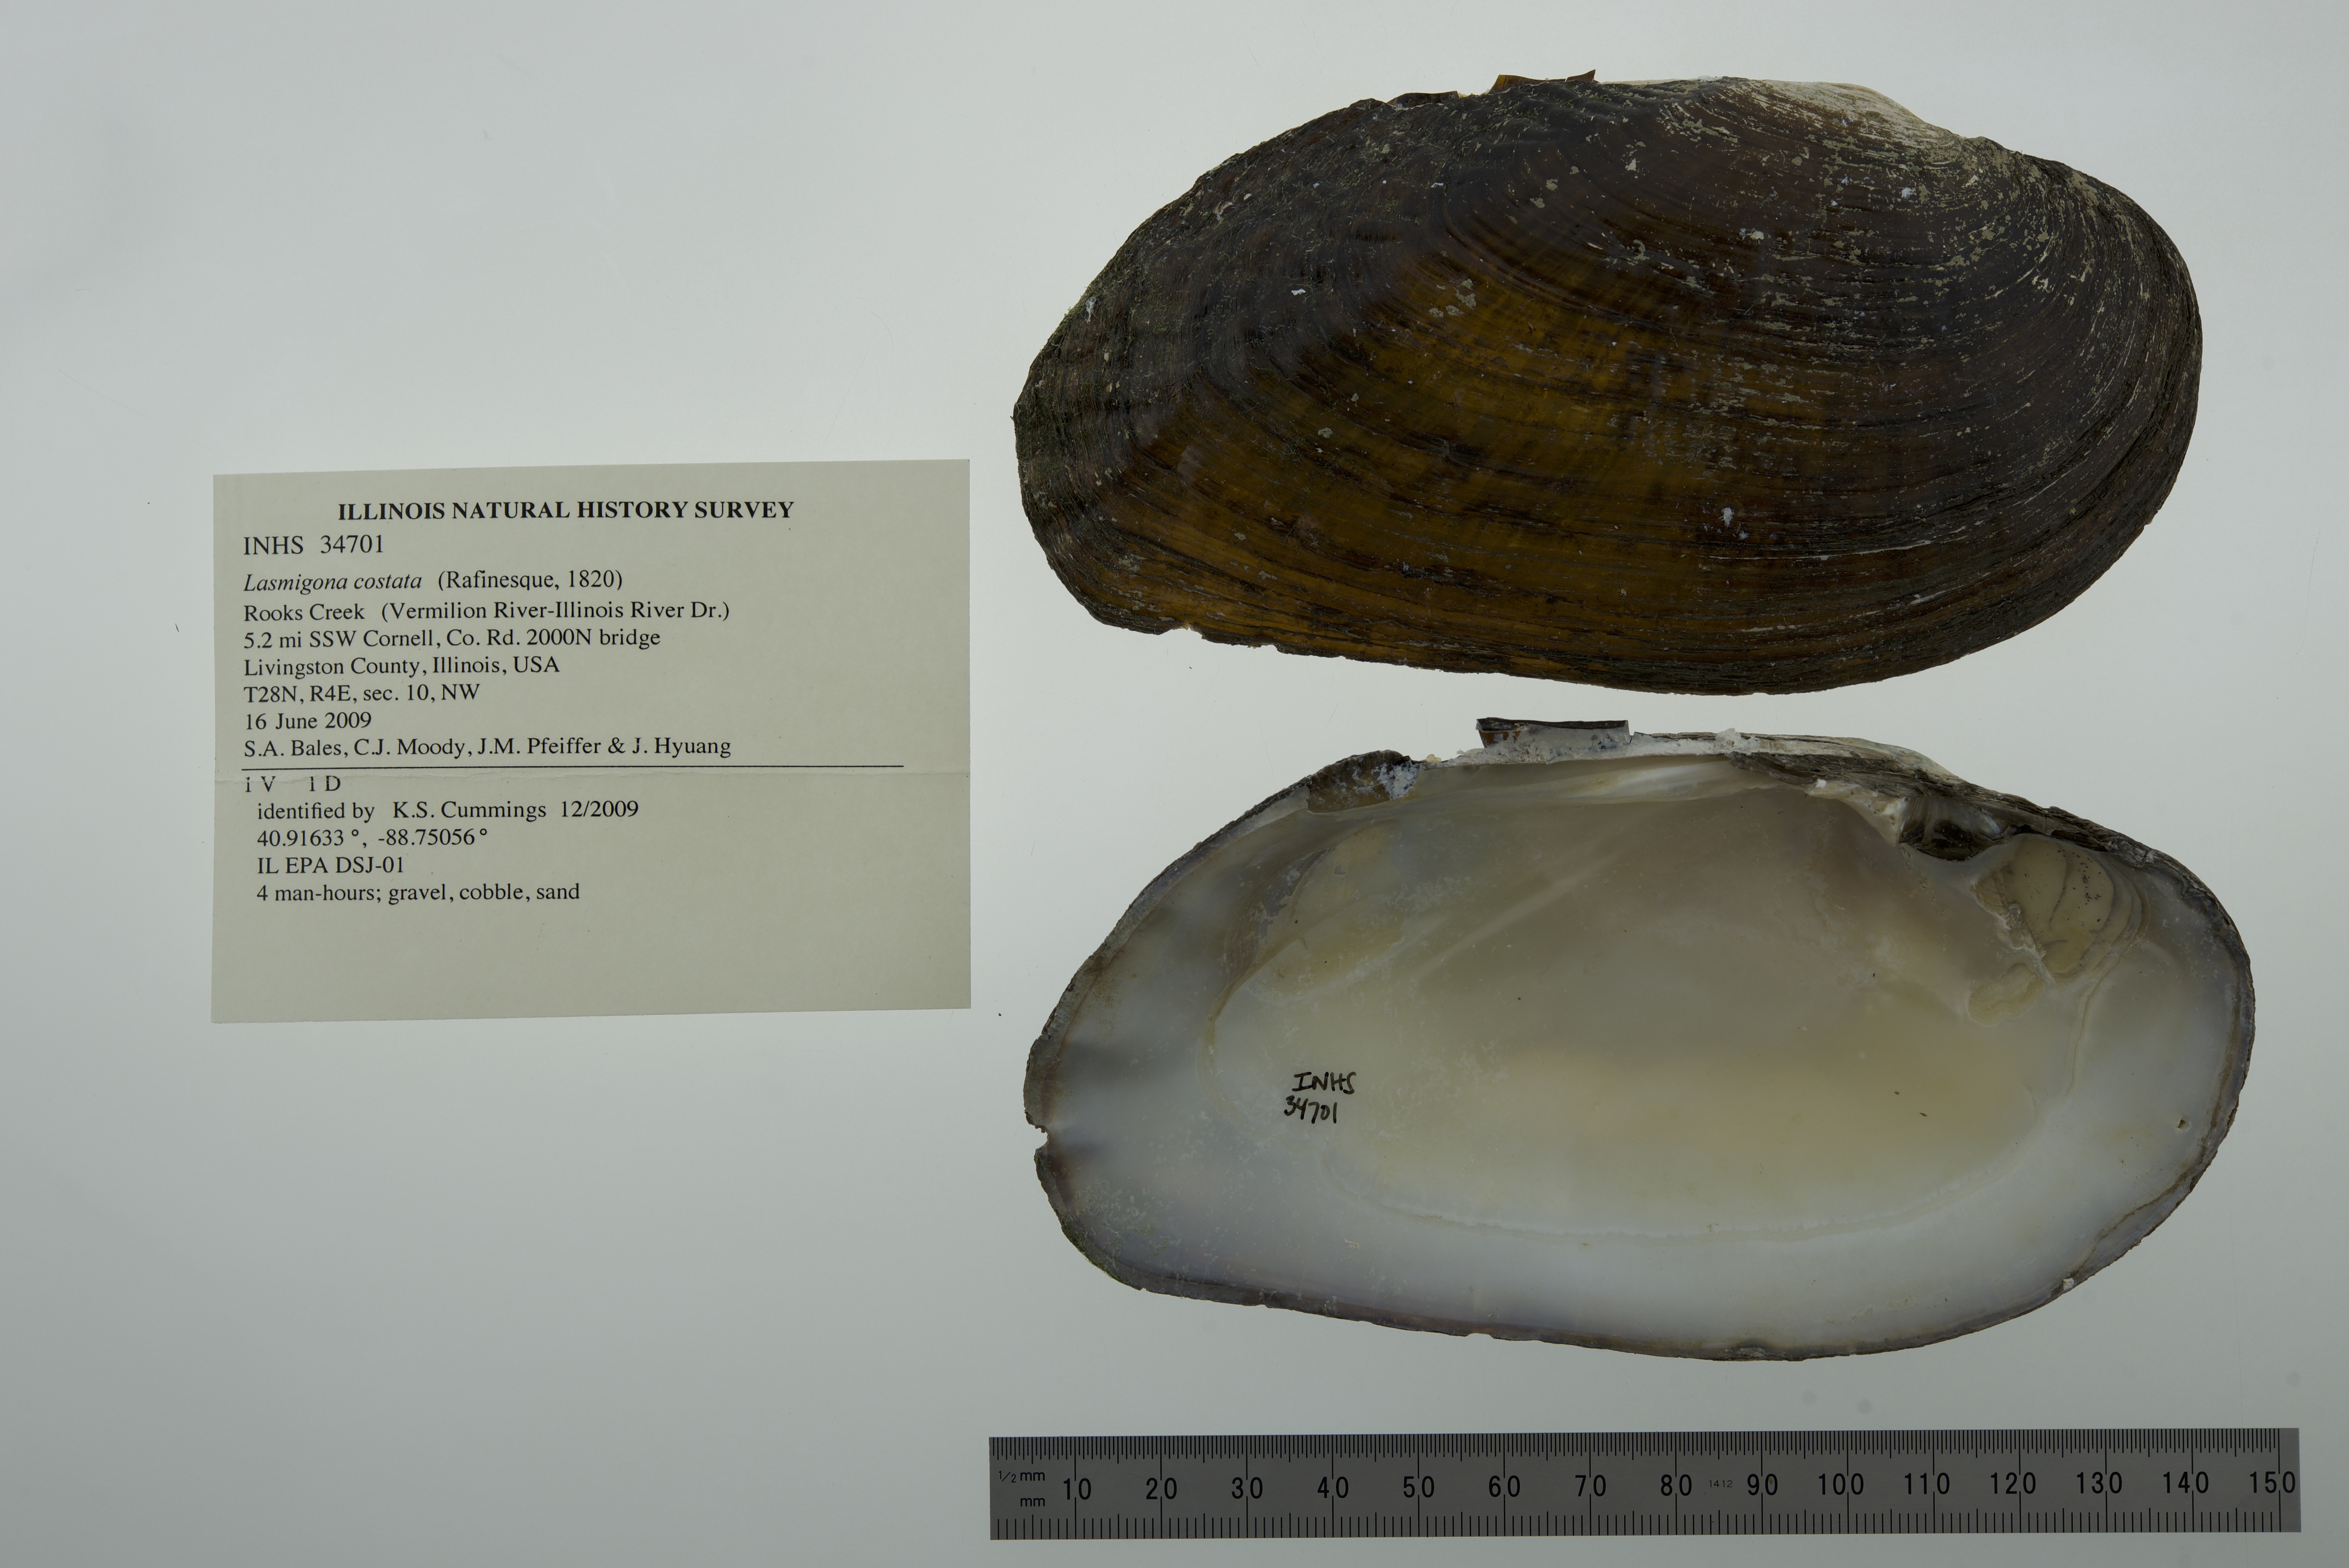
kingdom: Animalia
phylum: Mollusca
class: Bivalvia
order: Unionida
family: Unionidae
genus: Lasmigona
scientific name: Lasmigona costata
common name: Flutedshell
